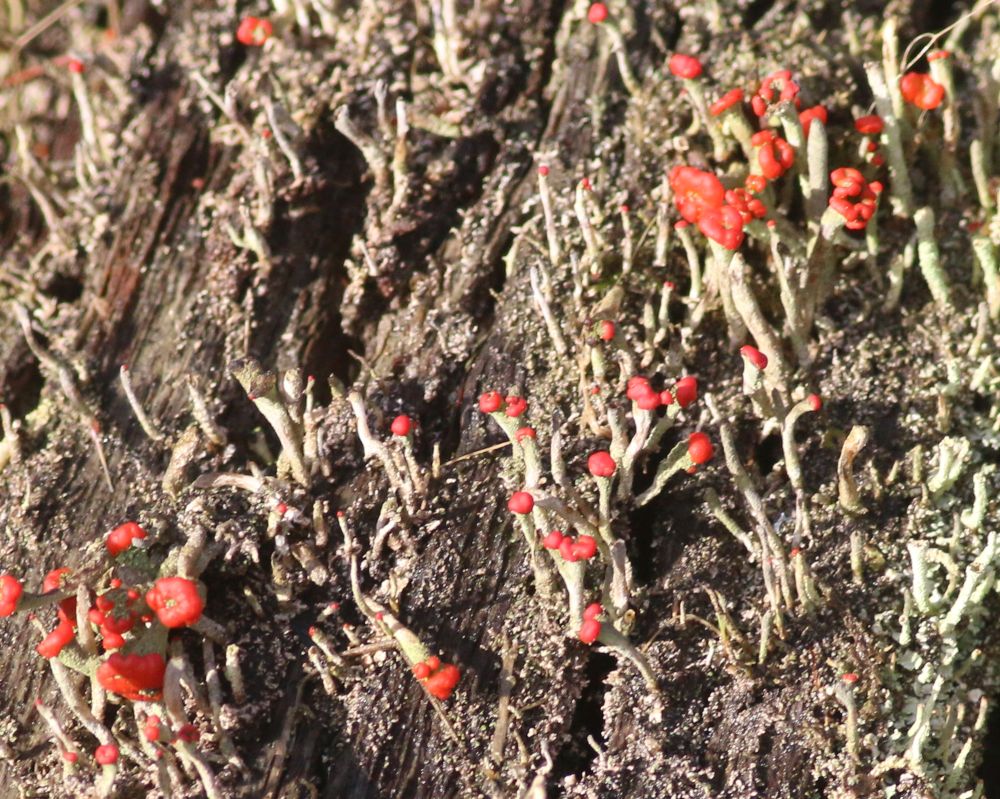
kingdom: Fungi
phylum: Ascomycota
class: Lecanoromycetes
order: Lecanorales
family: Cladoniaceae
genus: Cladonia
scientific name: Cladonia floerkeana
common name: lakrød bægerlav
